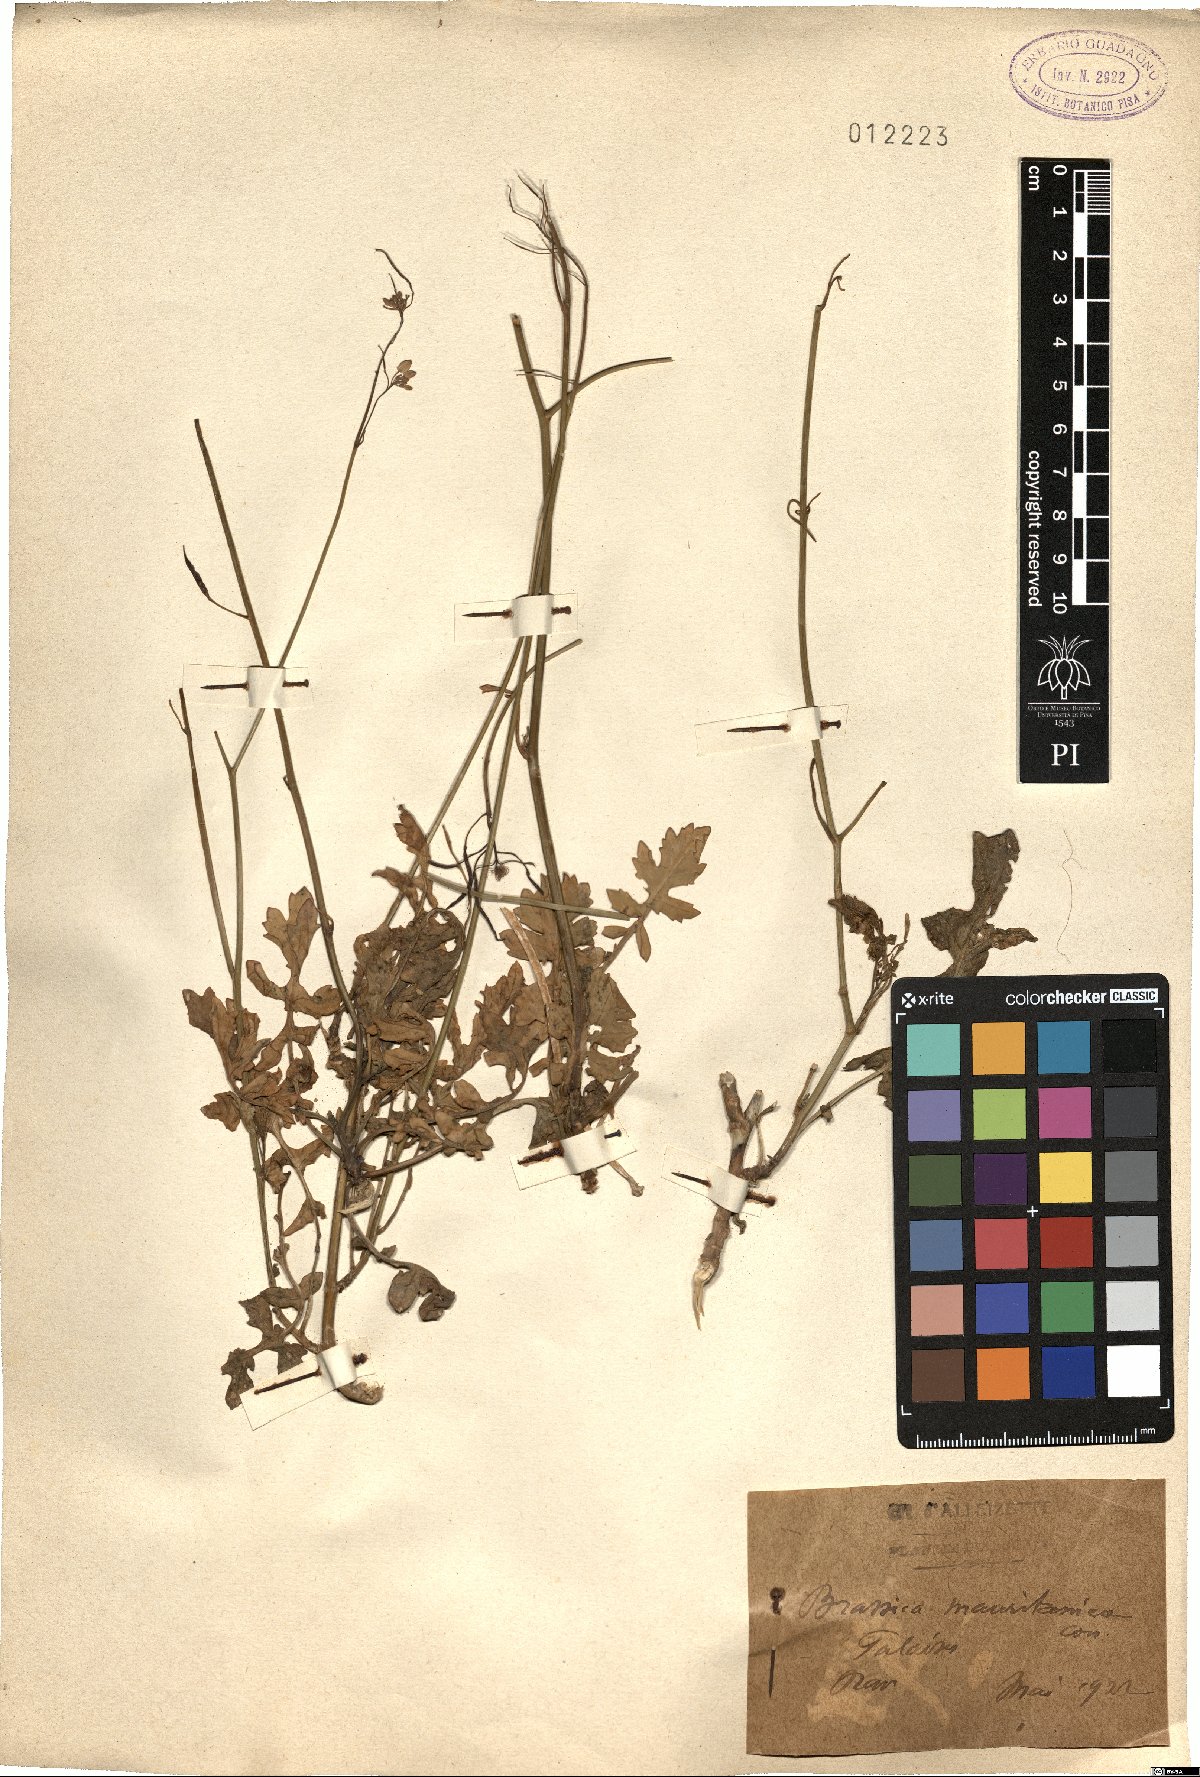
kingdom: Plantae
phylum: Tracheophyta
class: Magnoliopsida
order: Brassicales
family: Brassicaceae
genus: Brassica
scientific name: Brassica
